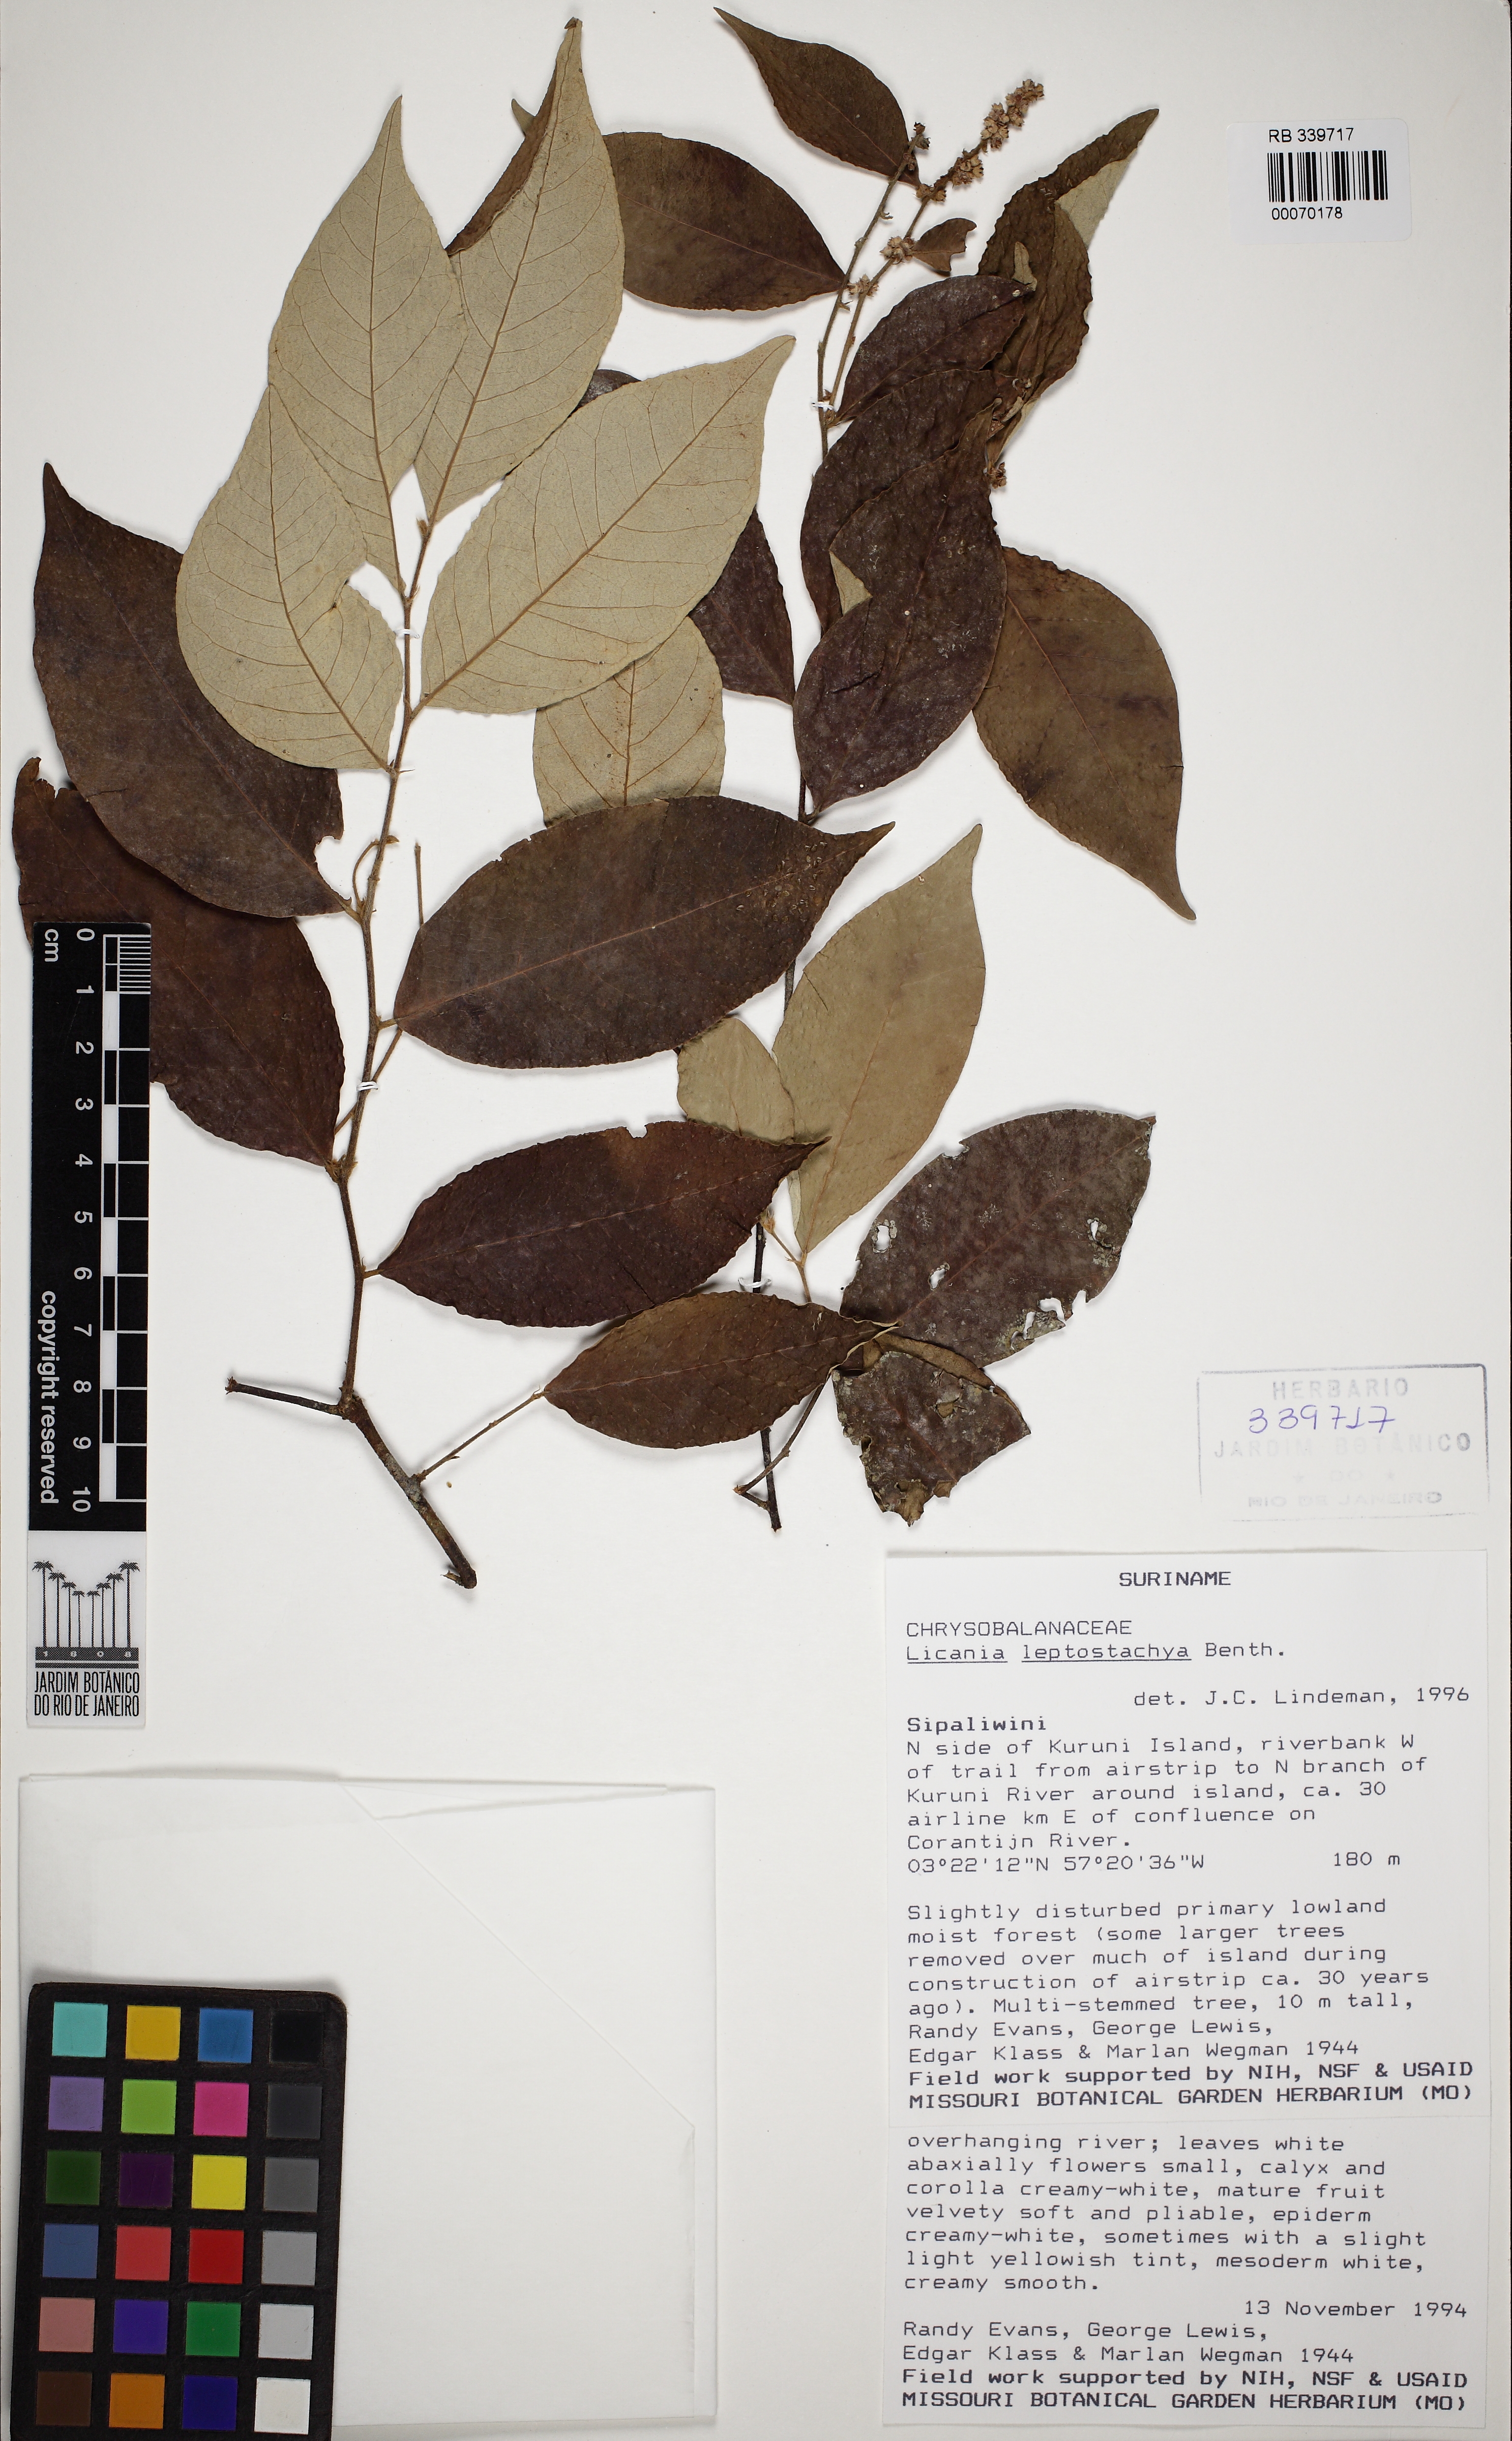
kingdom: Plantae
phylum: Tracheophyta
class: Magnoliopsida
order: Malpighiales
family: Chrysobalanaceae
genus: Licania
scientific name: Licania leptostachya
